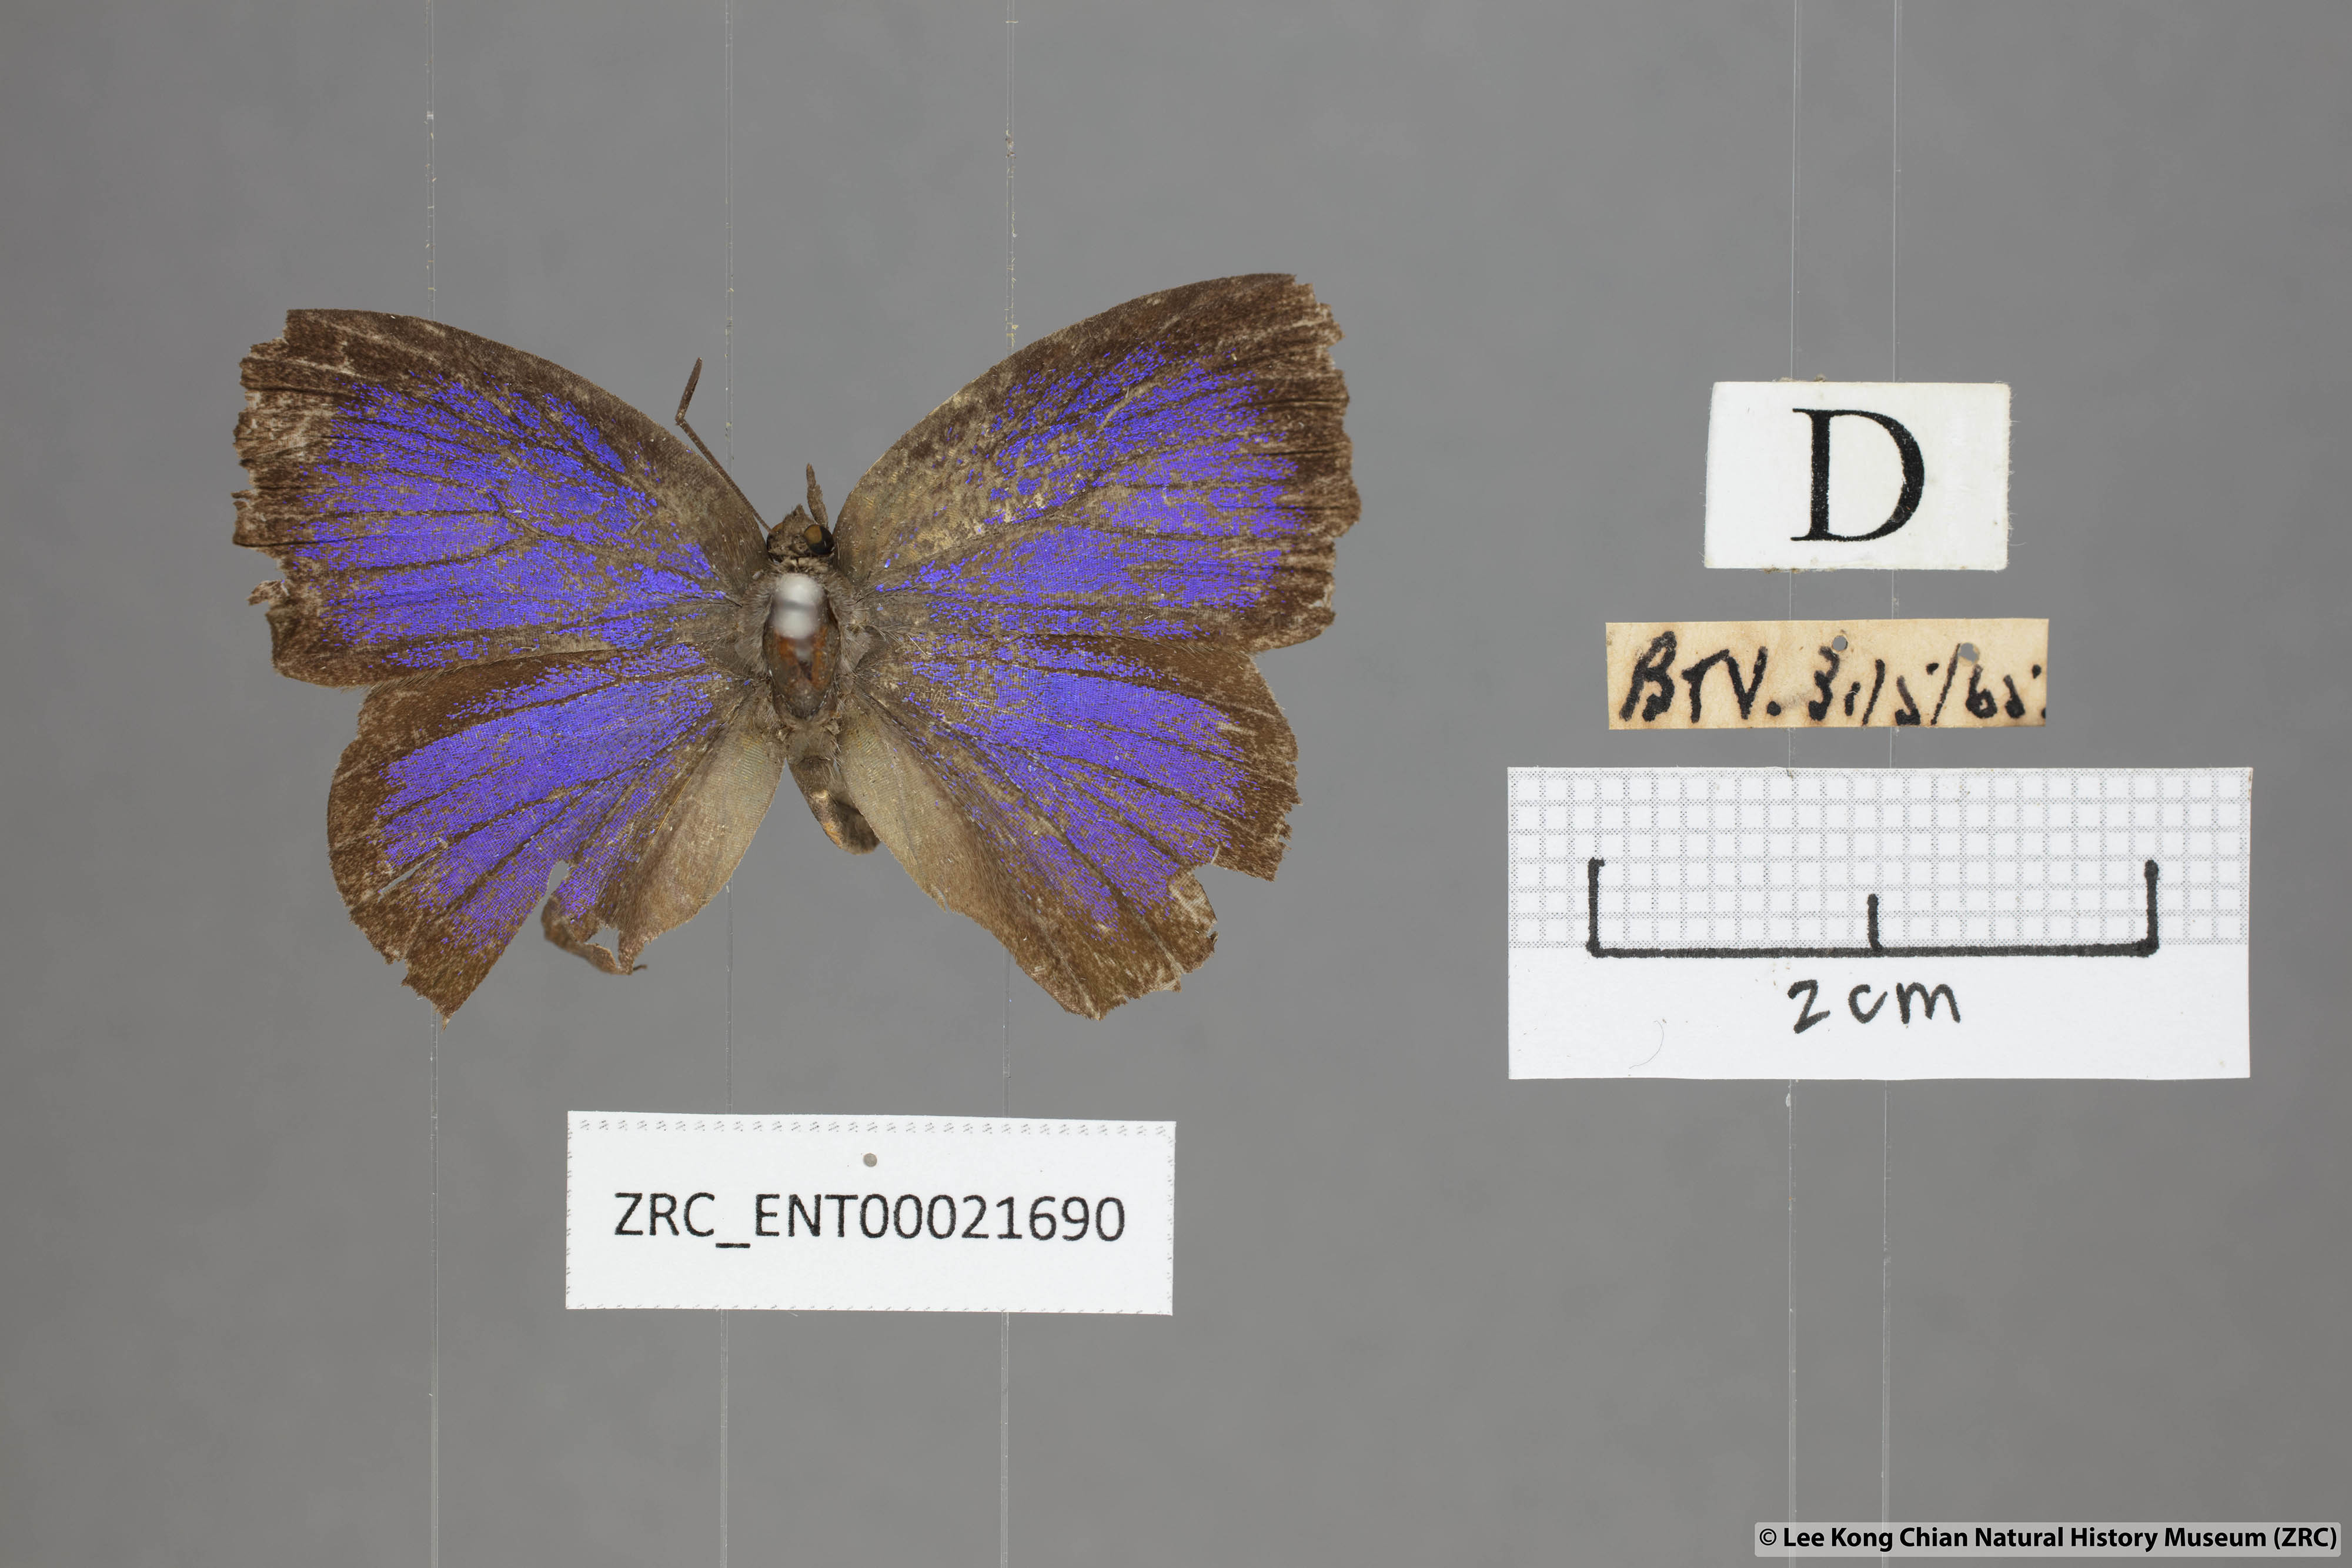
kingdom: Animalia
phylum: Arthropoda
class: Insecta
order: Lepidoptera
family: Lycaenidae
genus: Mahathala
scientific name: Mahathala ameria
